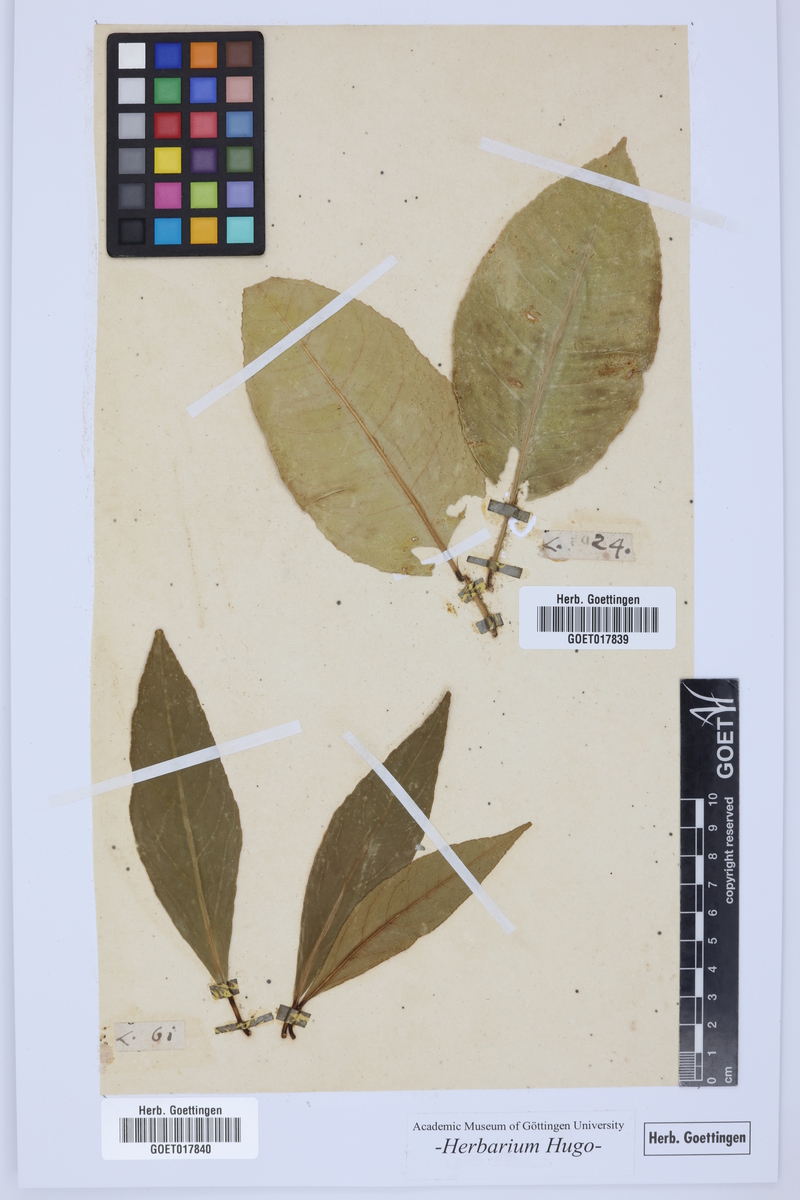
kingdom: Plantae
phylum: Tracheophyta
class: Magnoliopsida
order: Sapindales
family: Rutaceae
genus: Citrus
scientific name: Citrus
